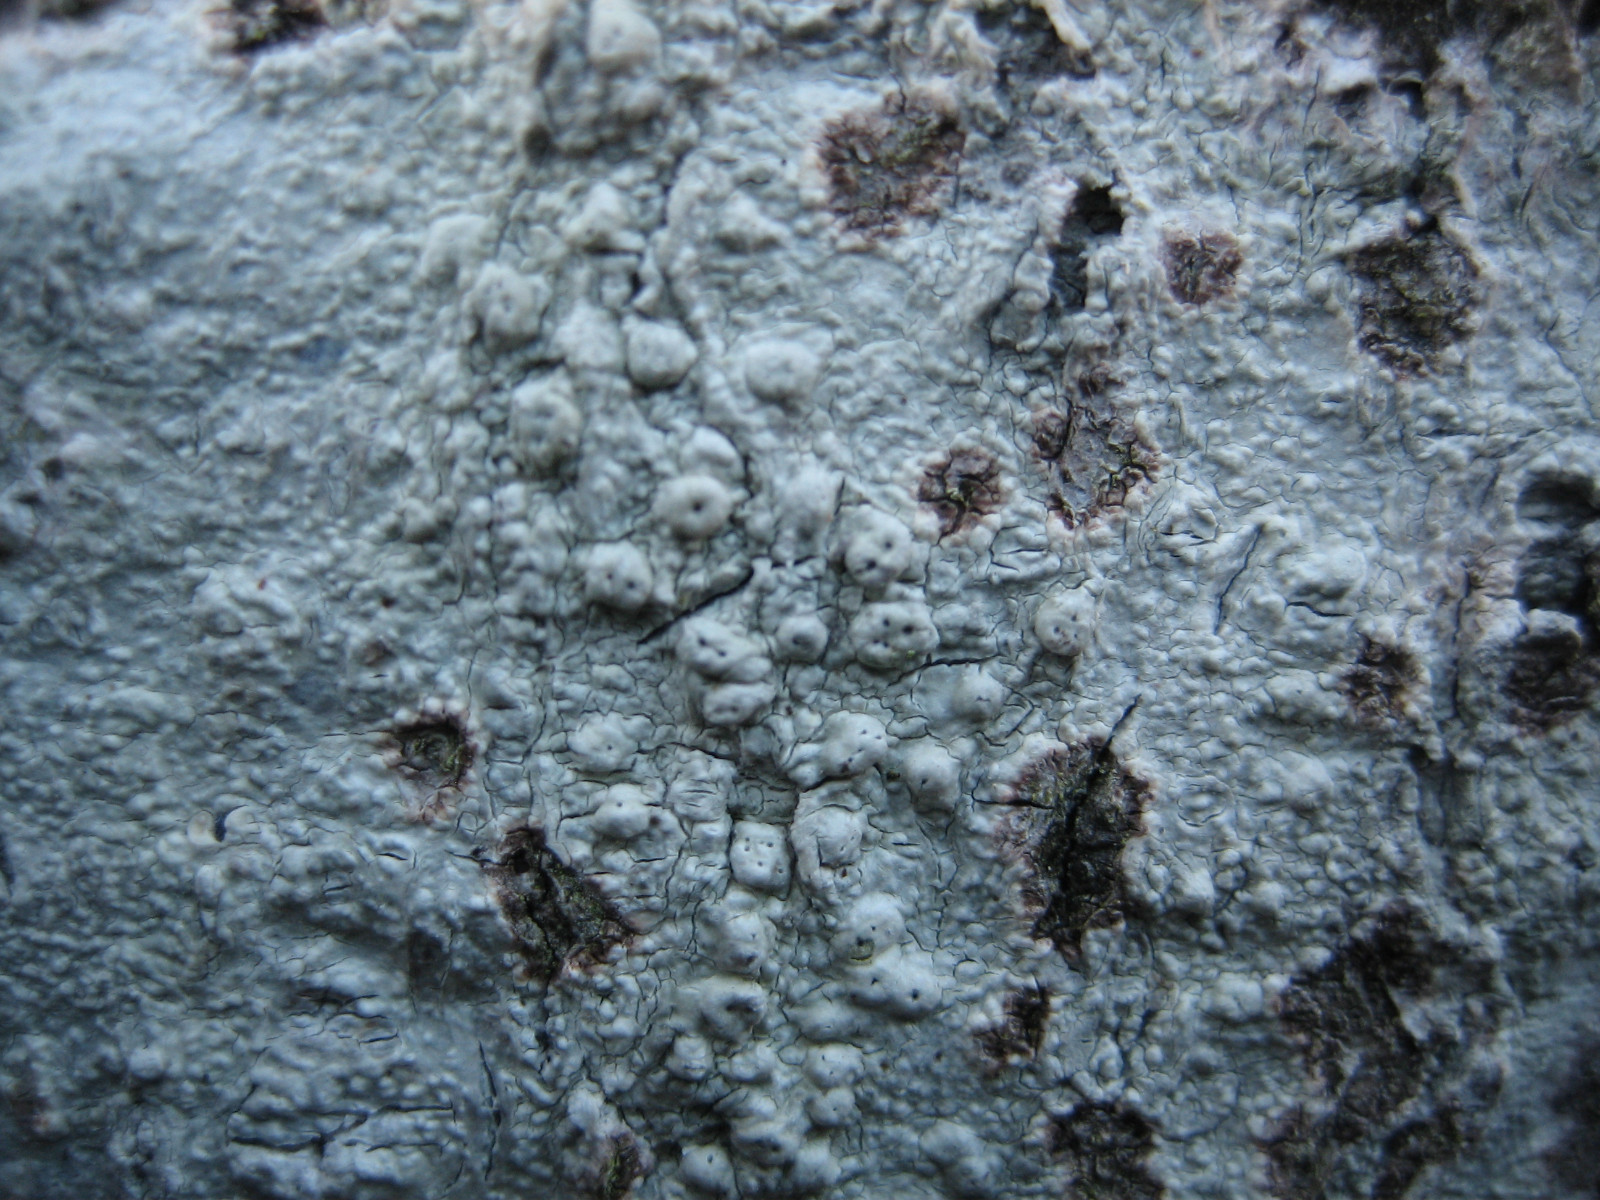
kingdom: Fungi
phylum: Ascomycota
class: Lecanoromycetes
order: Pertusariales
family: Pertusariaceae
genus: Pertusaria
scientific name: Pertusaria pertusa
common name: almindelig prikvortelav
